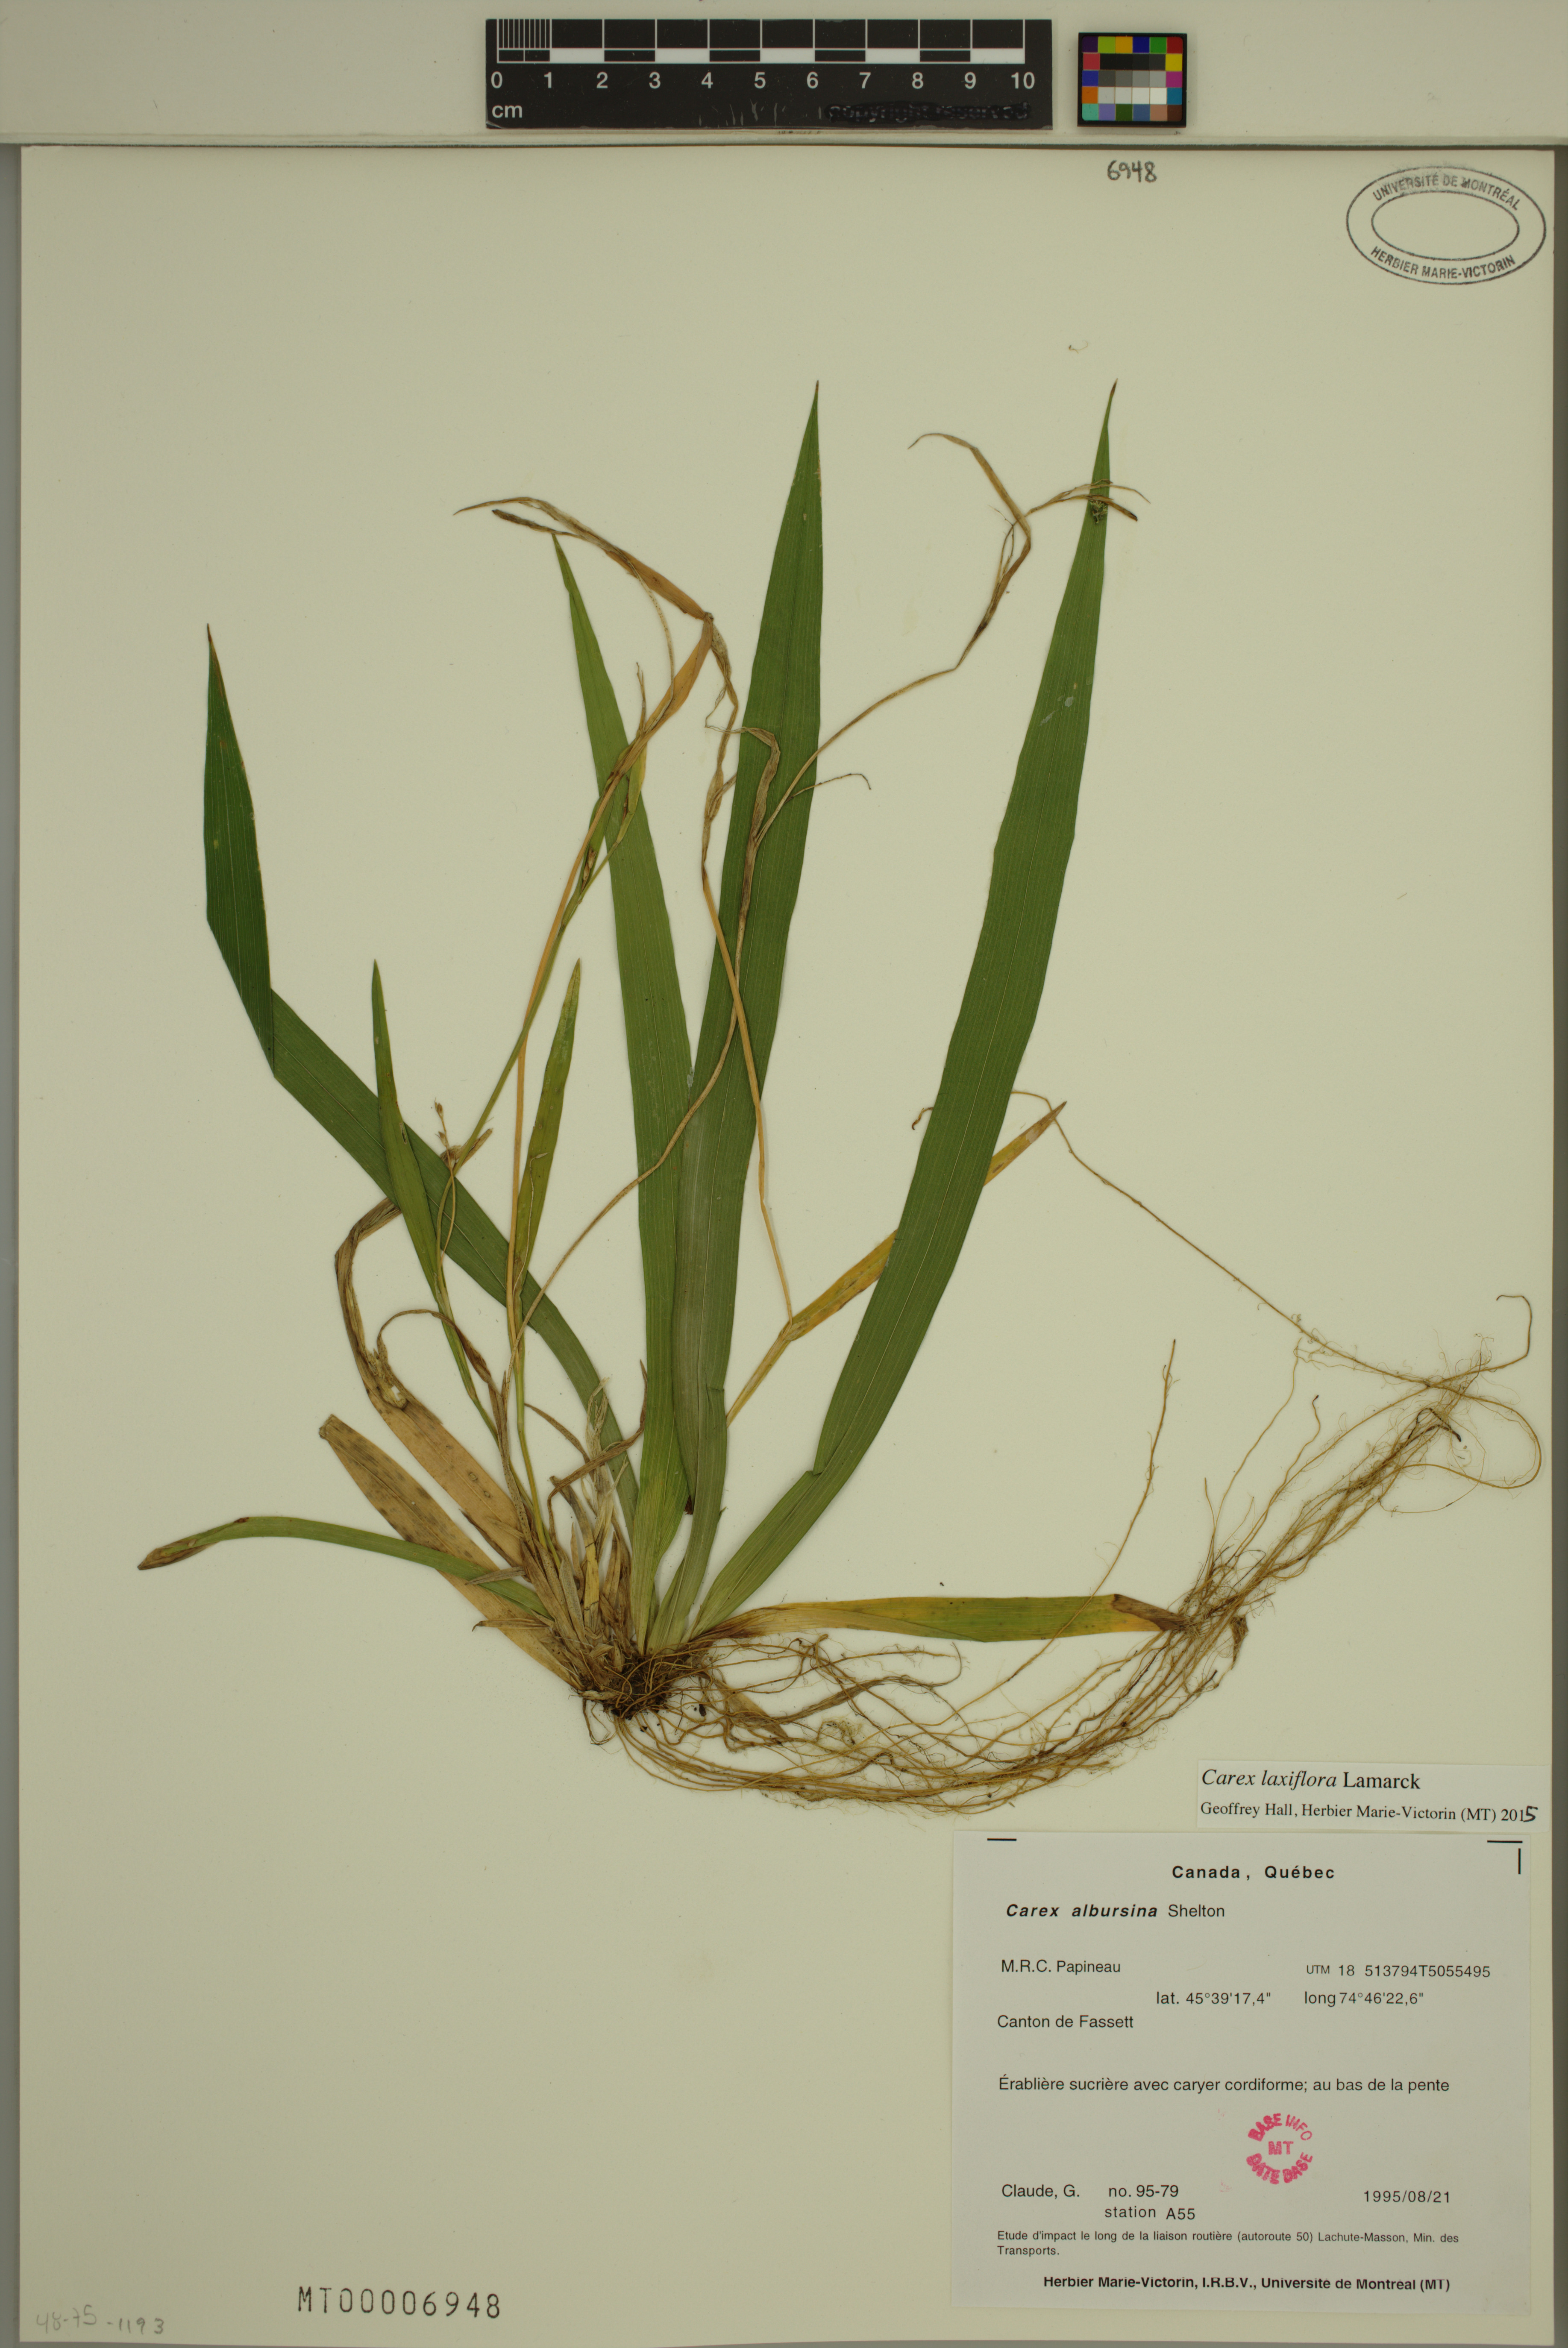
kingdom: Plantae
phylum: Tracheophyta
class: Liliopsida
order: Poales
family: Cyperaceae
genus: Carex
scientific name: Carex laxiflora
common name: Beech wood sedge
